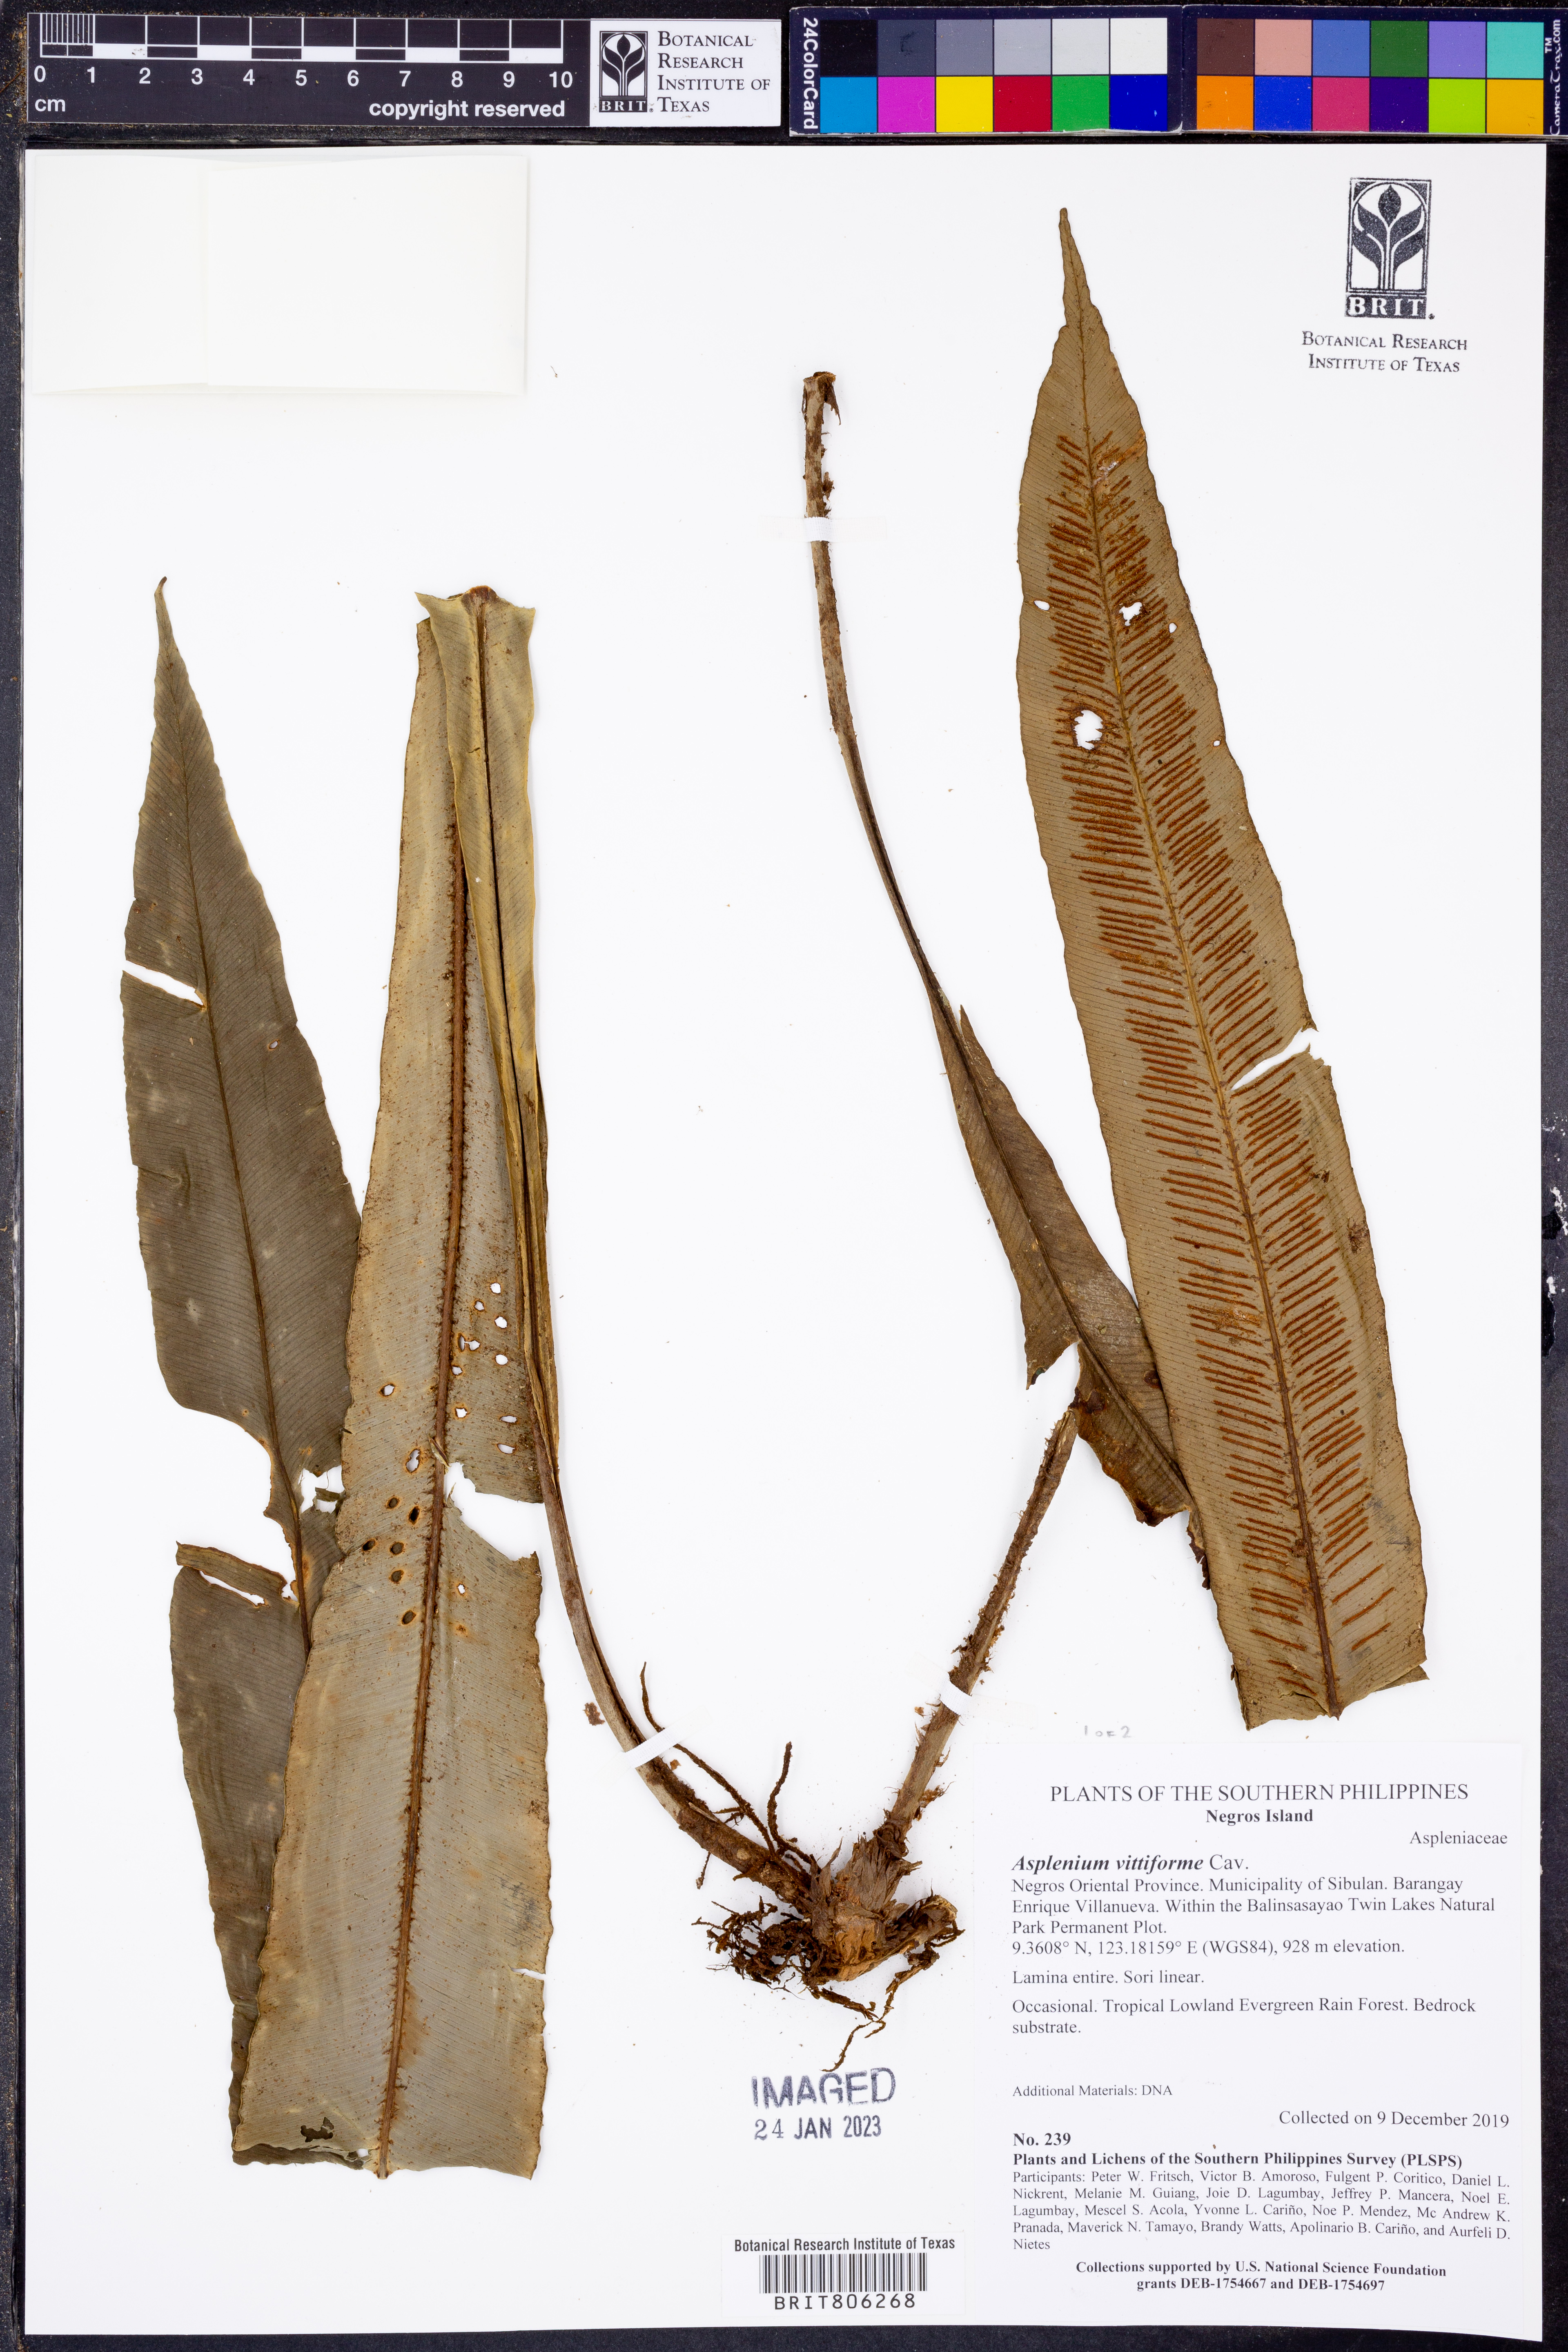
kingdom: Plantae
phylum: Tracheophyta
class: Polypodiopsida
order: Polypodiales
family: Aspleniaceae
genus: Asplenium
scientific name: Asplenium vittiforme
